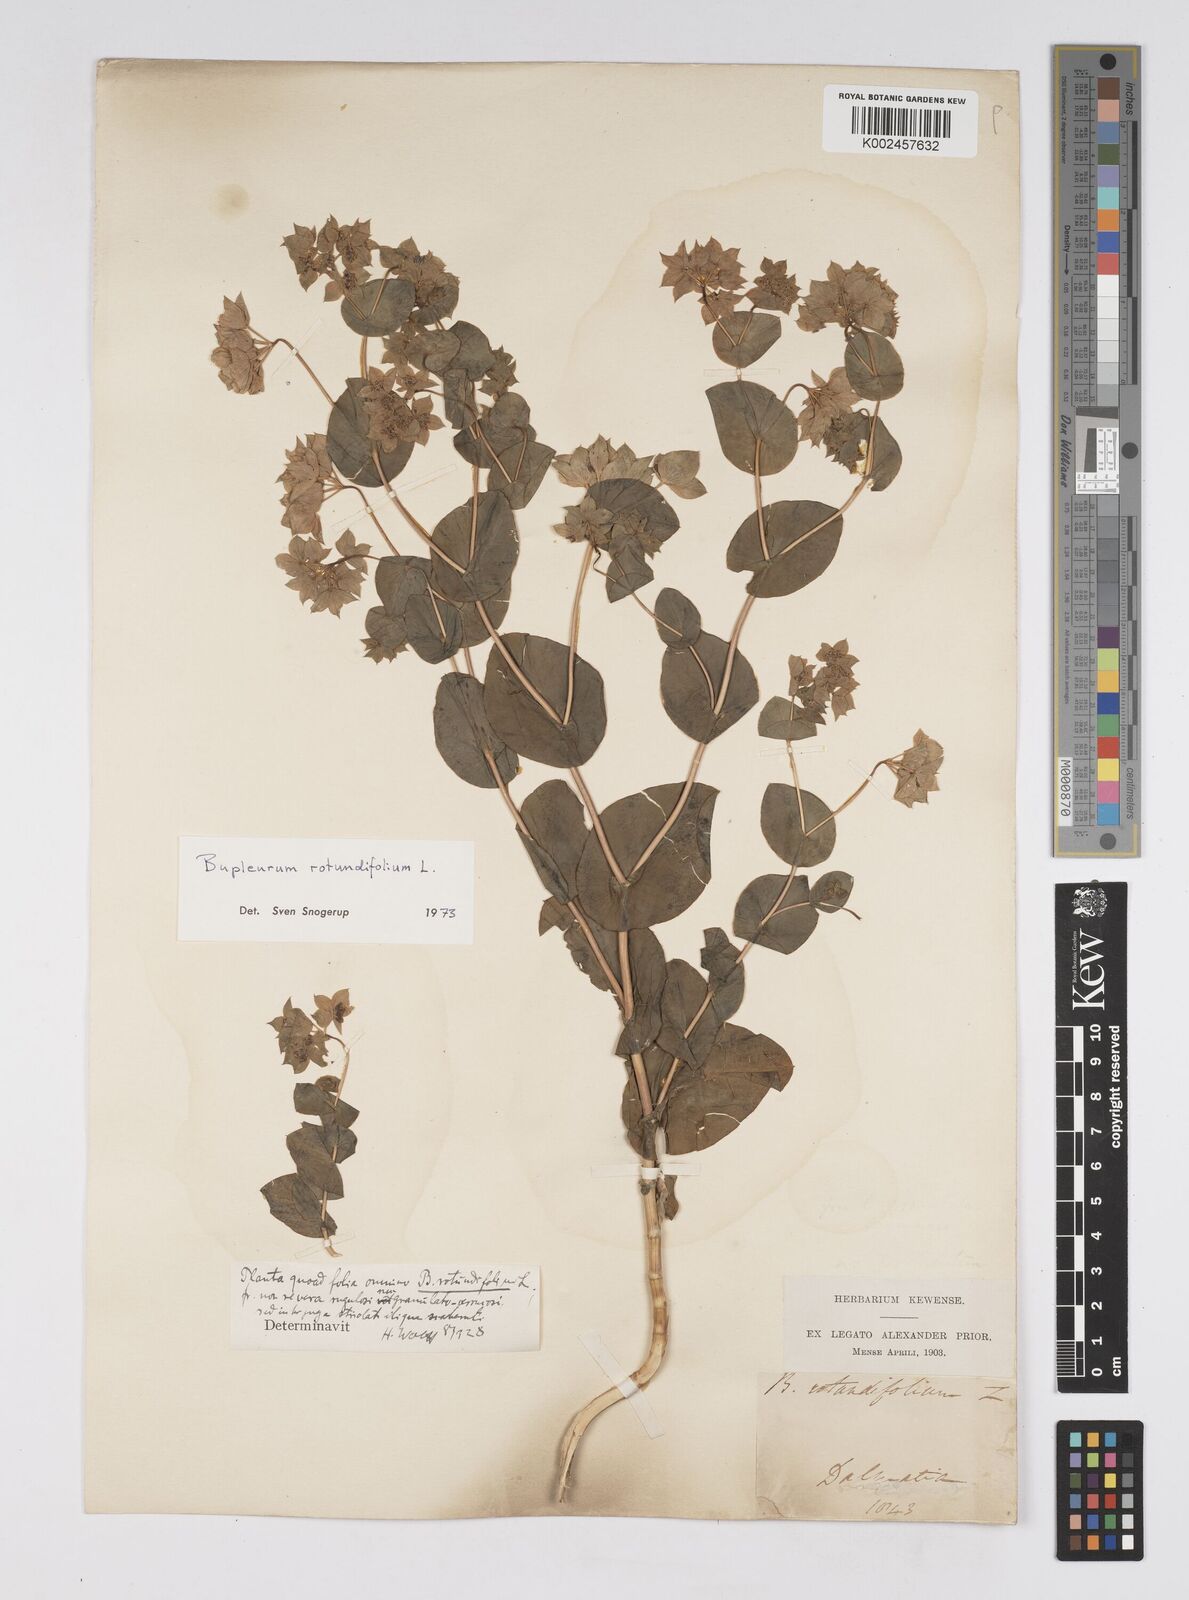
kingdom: Plantae
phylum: Tracheophyta
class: Magnoliopsida
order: Apiales
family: Apiaceae
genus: Bupleurum
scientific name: Bupleurum rotundifolium
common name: Thorow-wax
